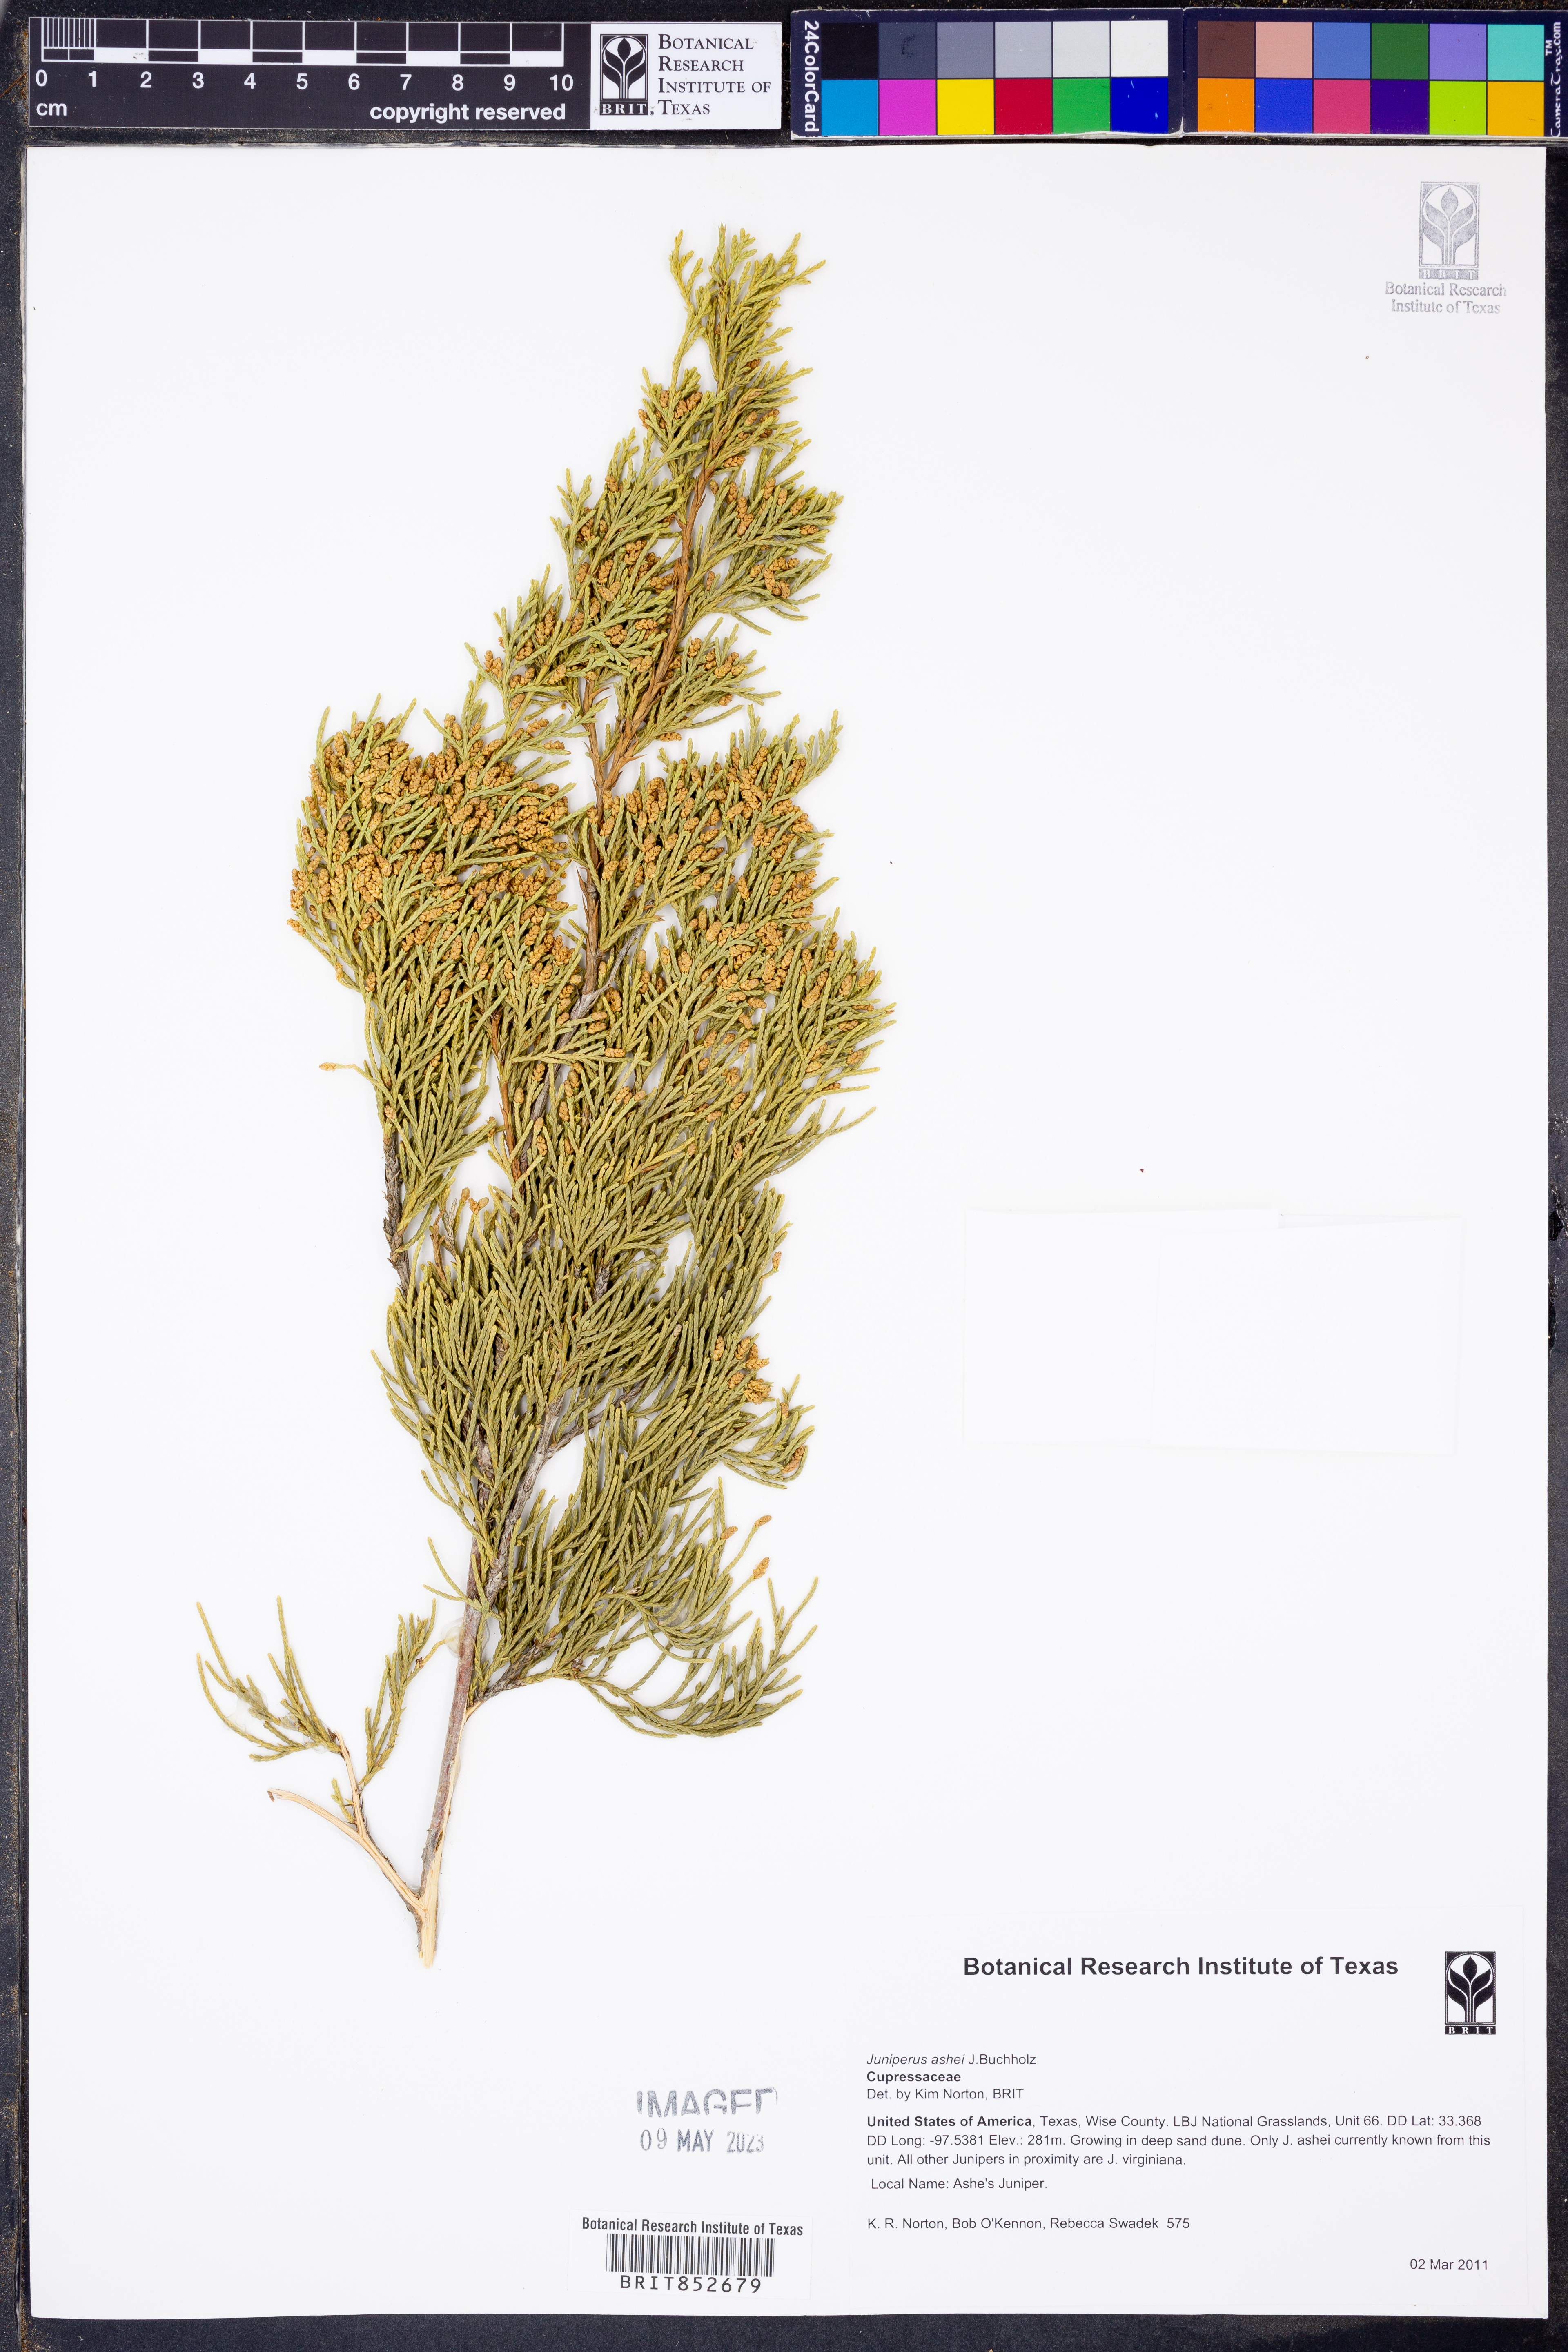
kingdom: Plantae
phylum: Tracheophyta
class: Pinopsida
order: Pinales
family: Cupressaceae
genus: Juniperus
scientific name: Juniperus ashei
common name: Mexican juniper
